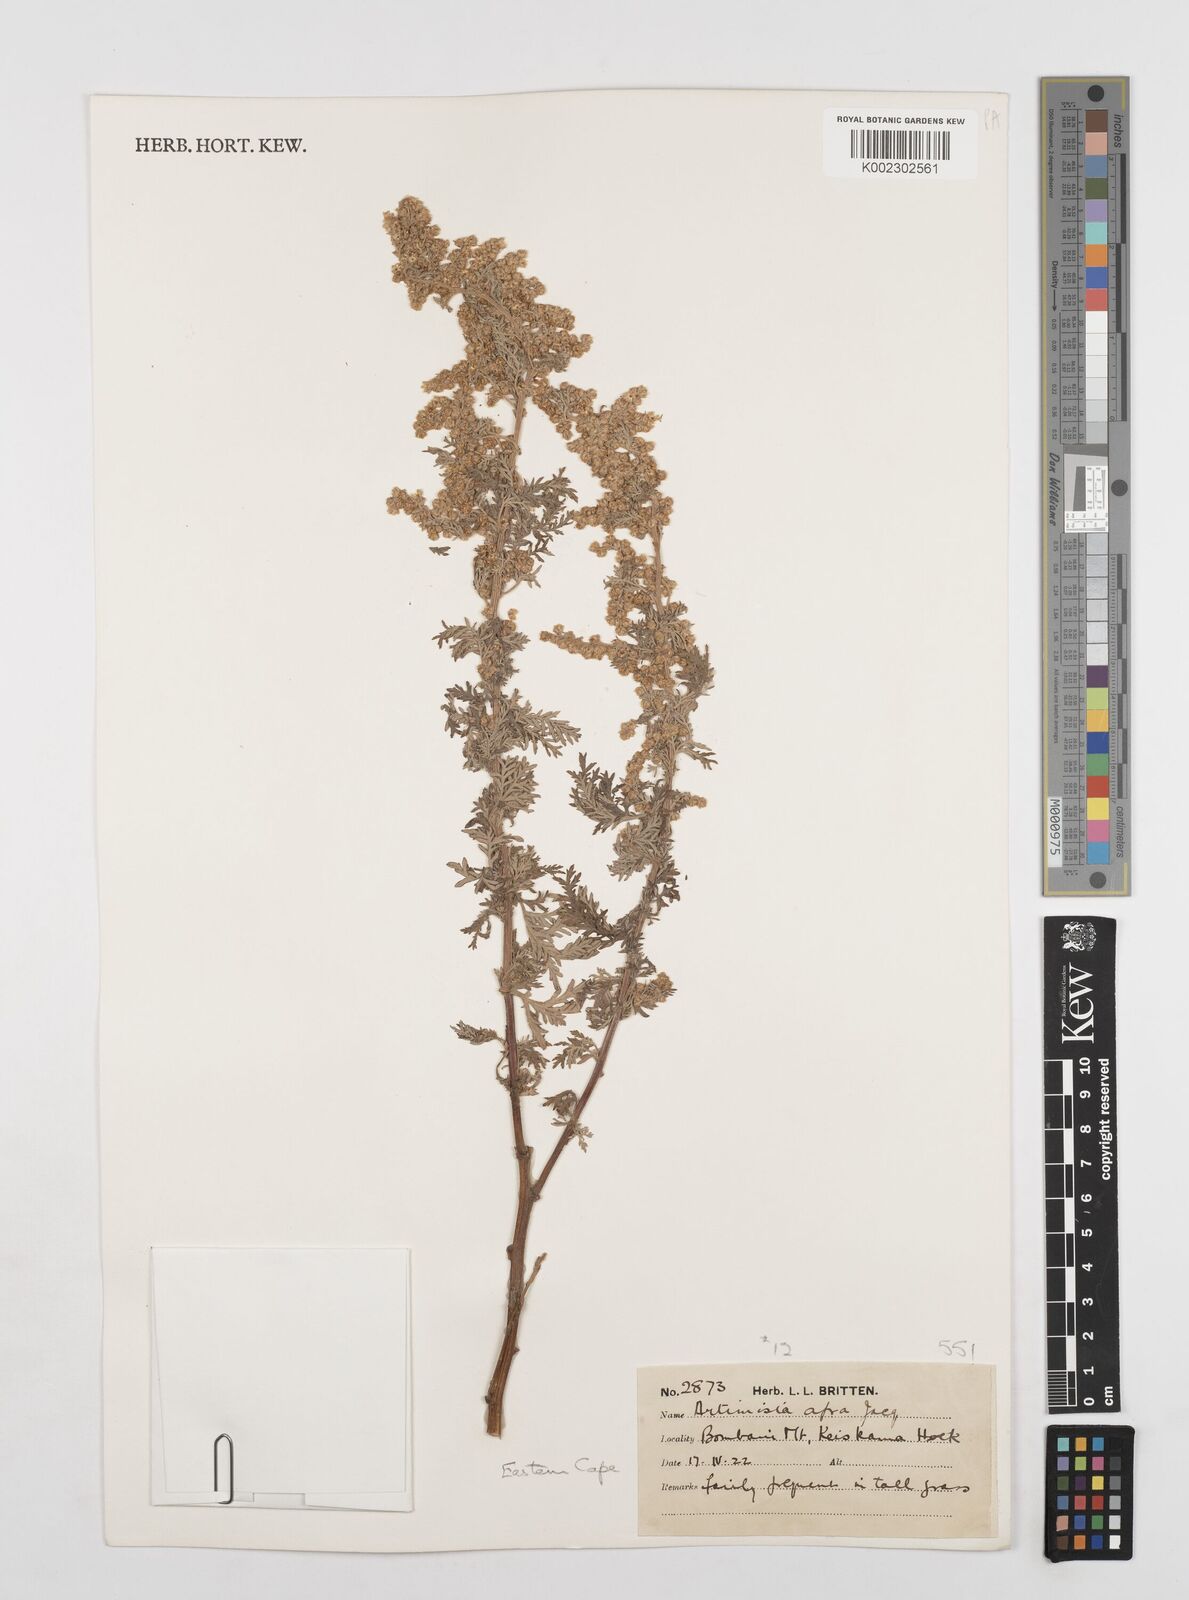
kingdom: Plantae
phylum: Tracheophyta
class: Magnoliopsida
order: Asterales
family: Asteraceae
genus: Artemisia
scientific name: Artemisia afra
